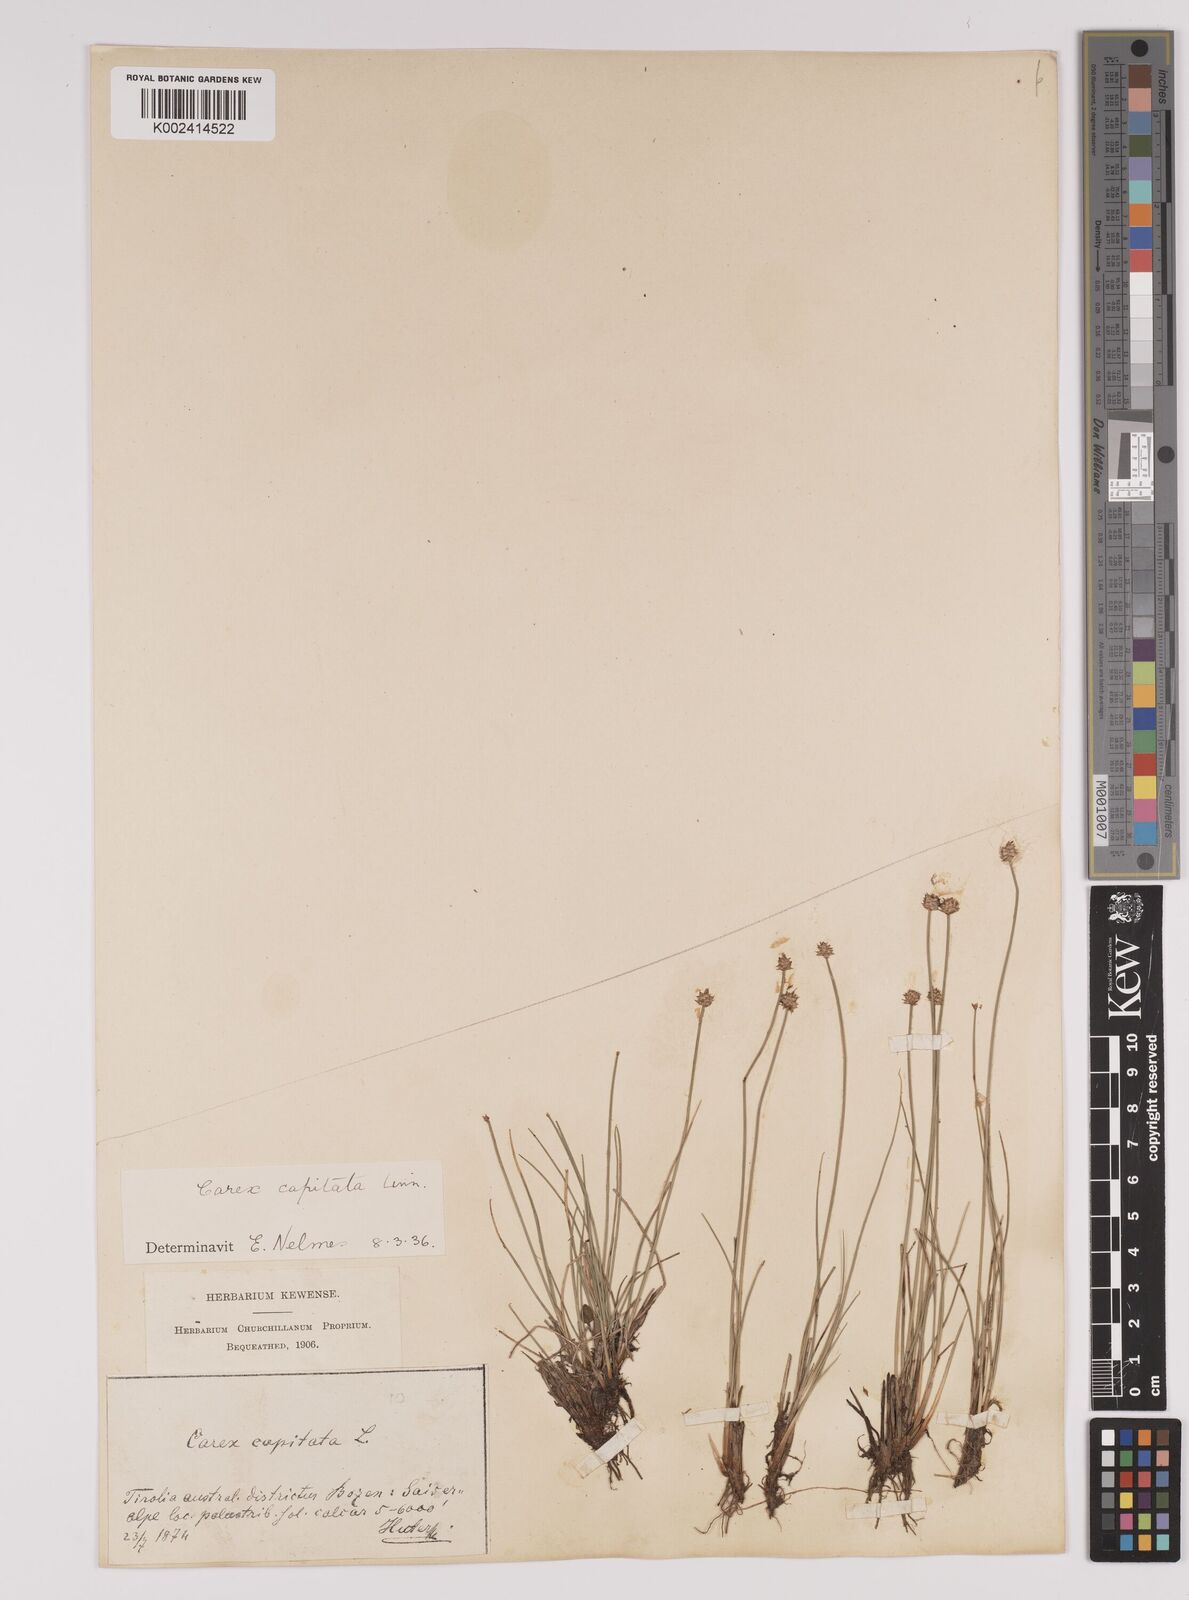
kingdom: Plantae
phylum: Tracheophyta
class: Liliopsida
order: Poales
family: Cyperaceae
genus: Carex
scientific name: Carex capitata
